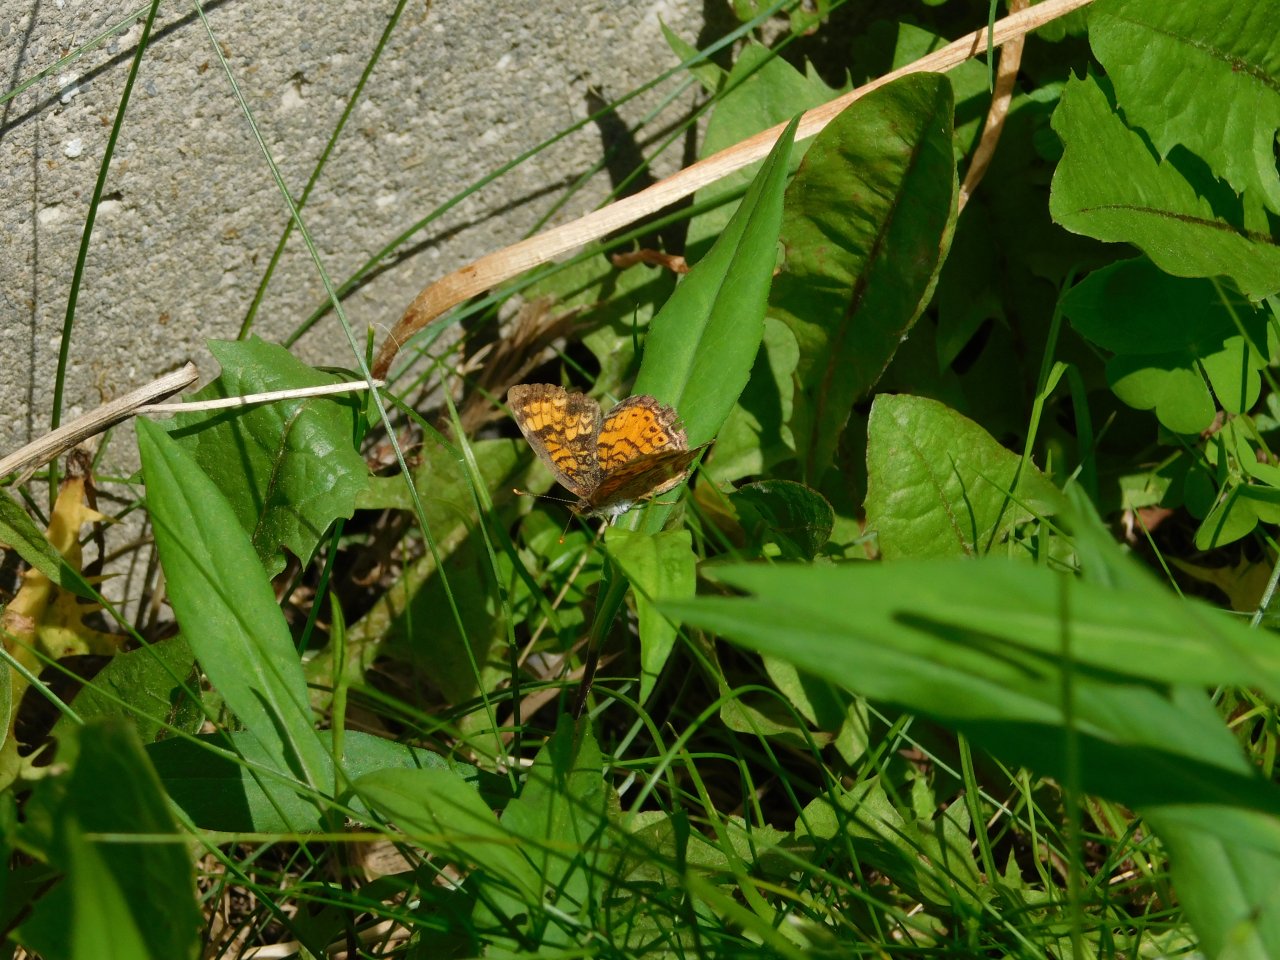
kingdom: Animalia
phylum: Arthropoda
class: Insecta
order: Lepidoptera
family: Nymphalidae
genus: Phyciodes
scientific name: Phyciodes tharos
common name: Northern Crescent
